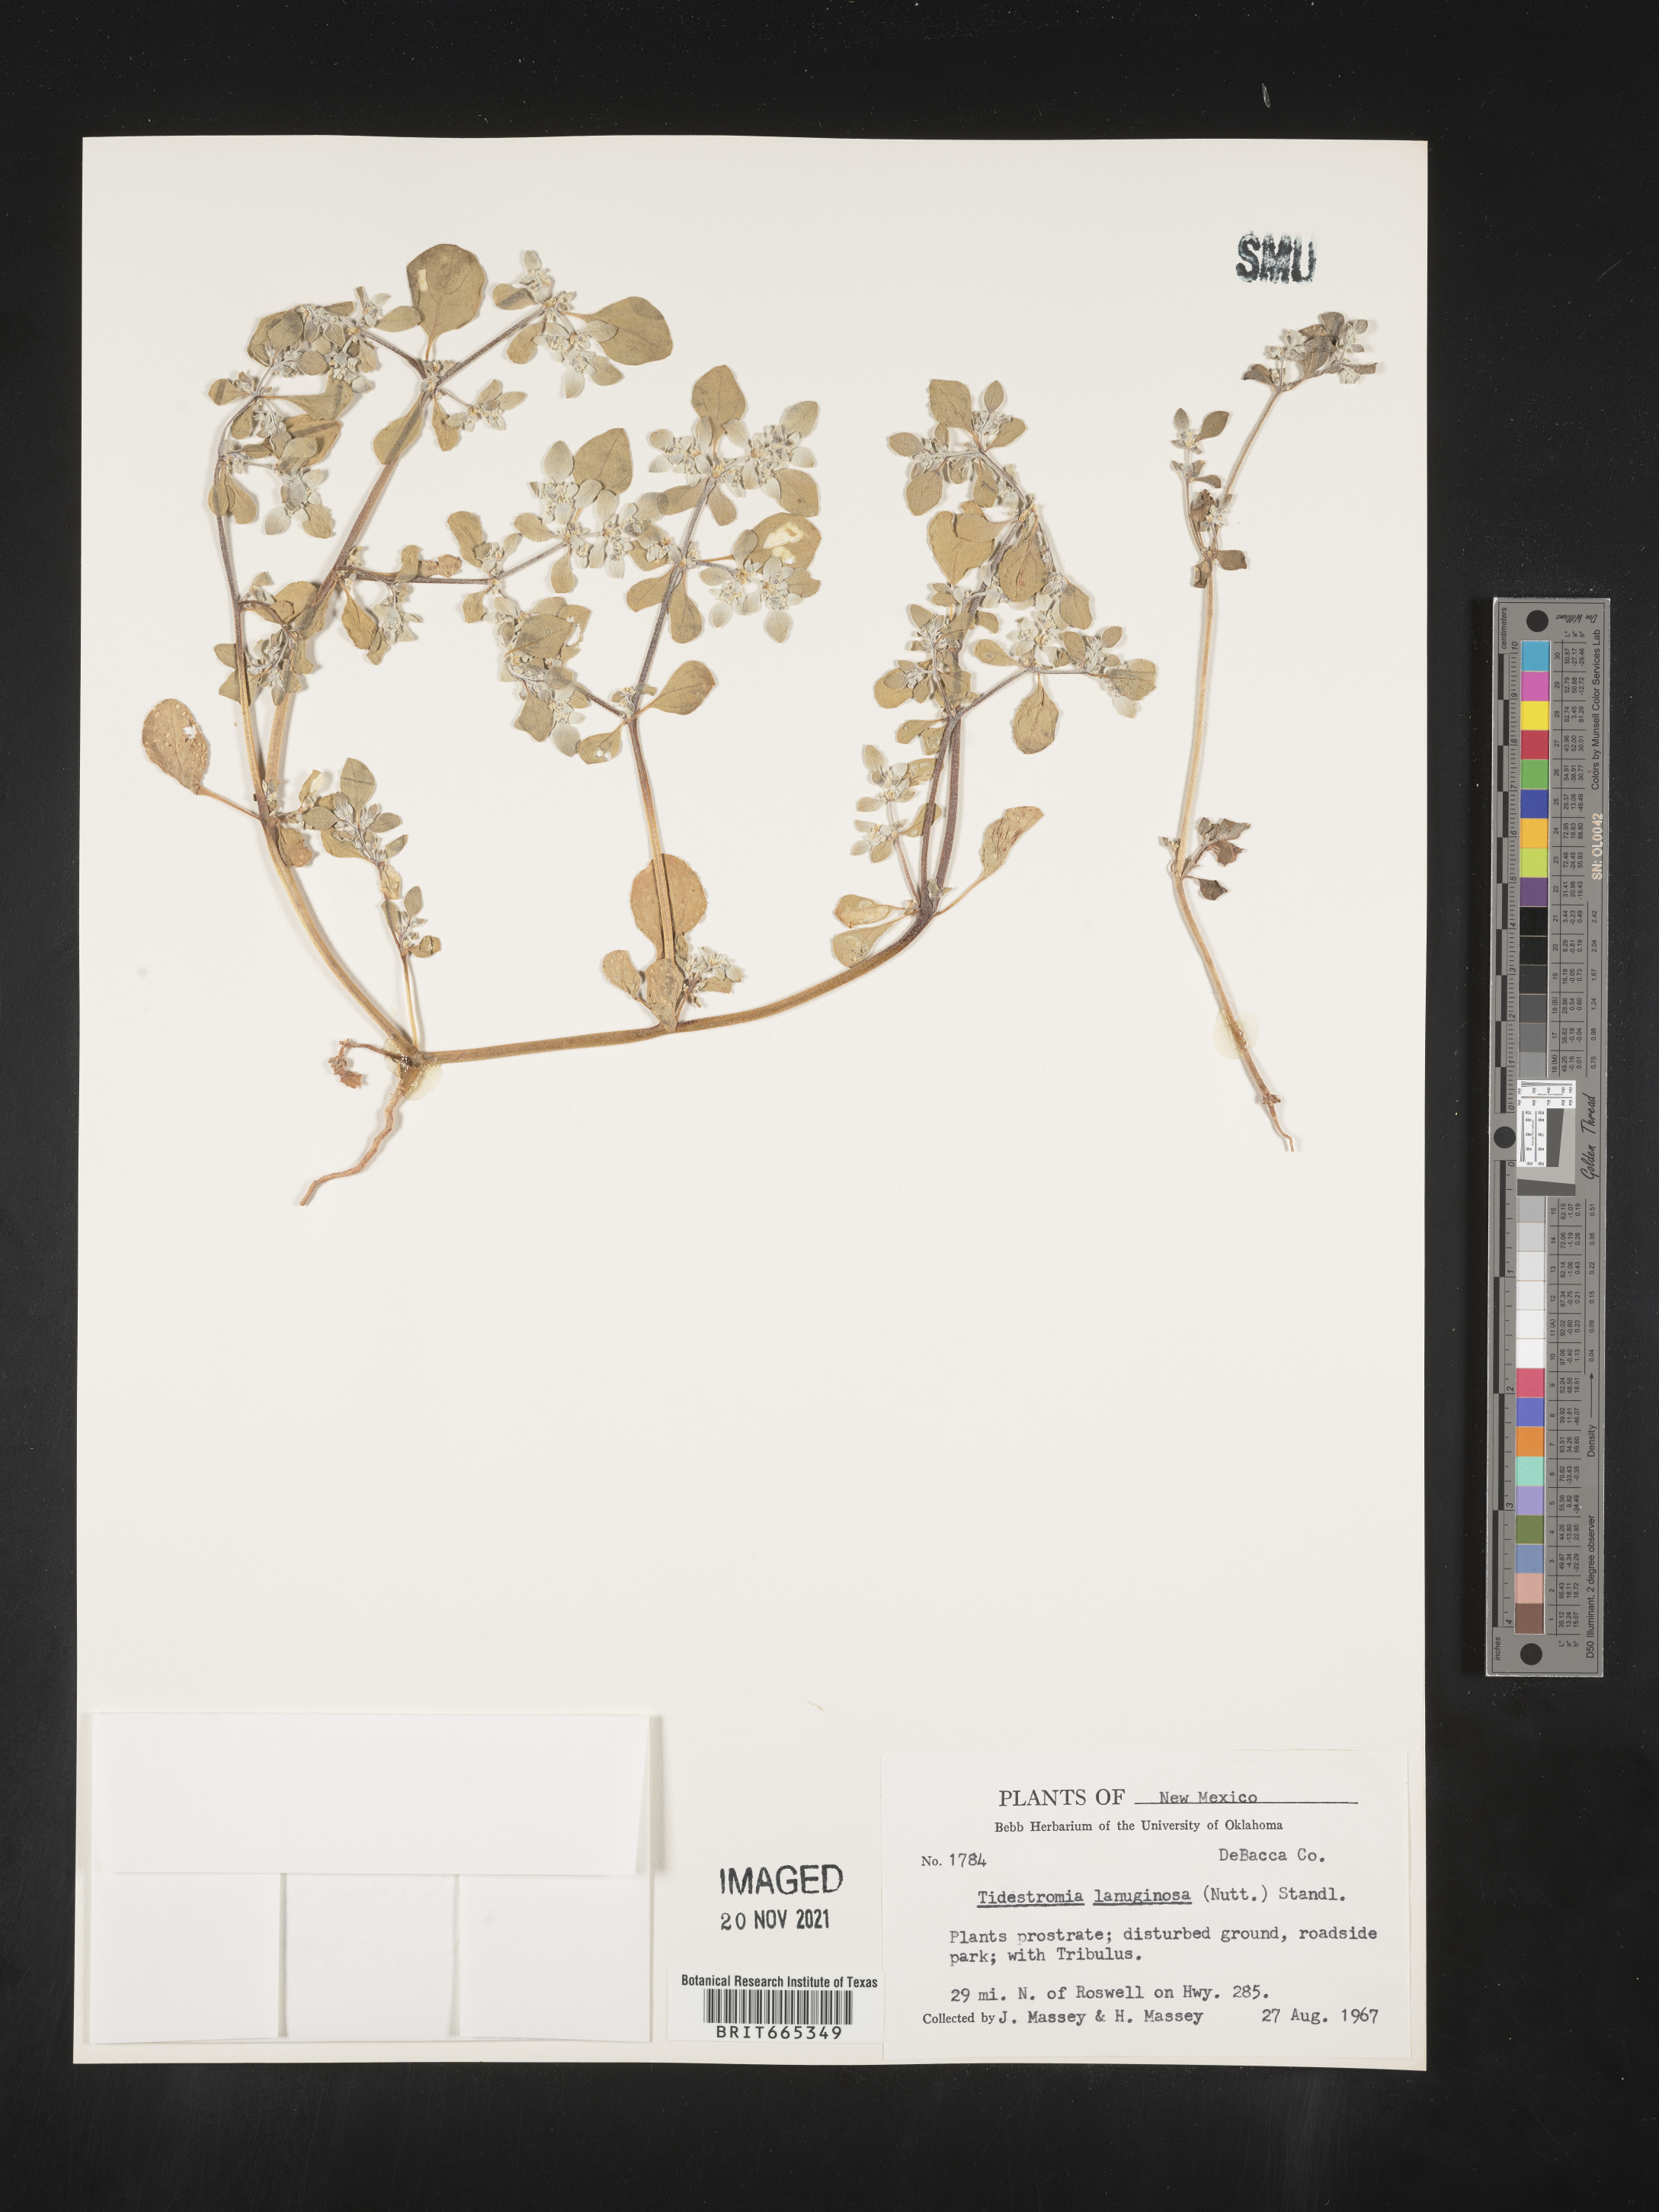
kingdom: Plantae
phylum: Tracheophyta
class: Magnoliopsida
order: Caryophyllales
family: Amaranthaceae
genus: Tidestromia
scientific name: Tidestromia lanuginosa
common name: Woolly tidestromia
